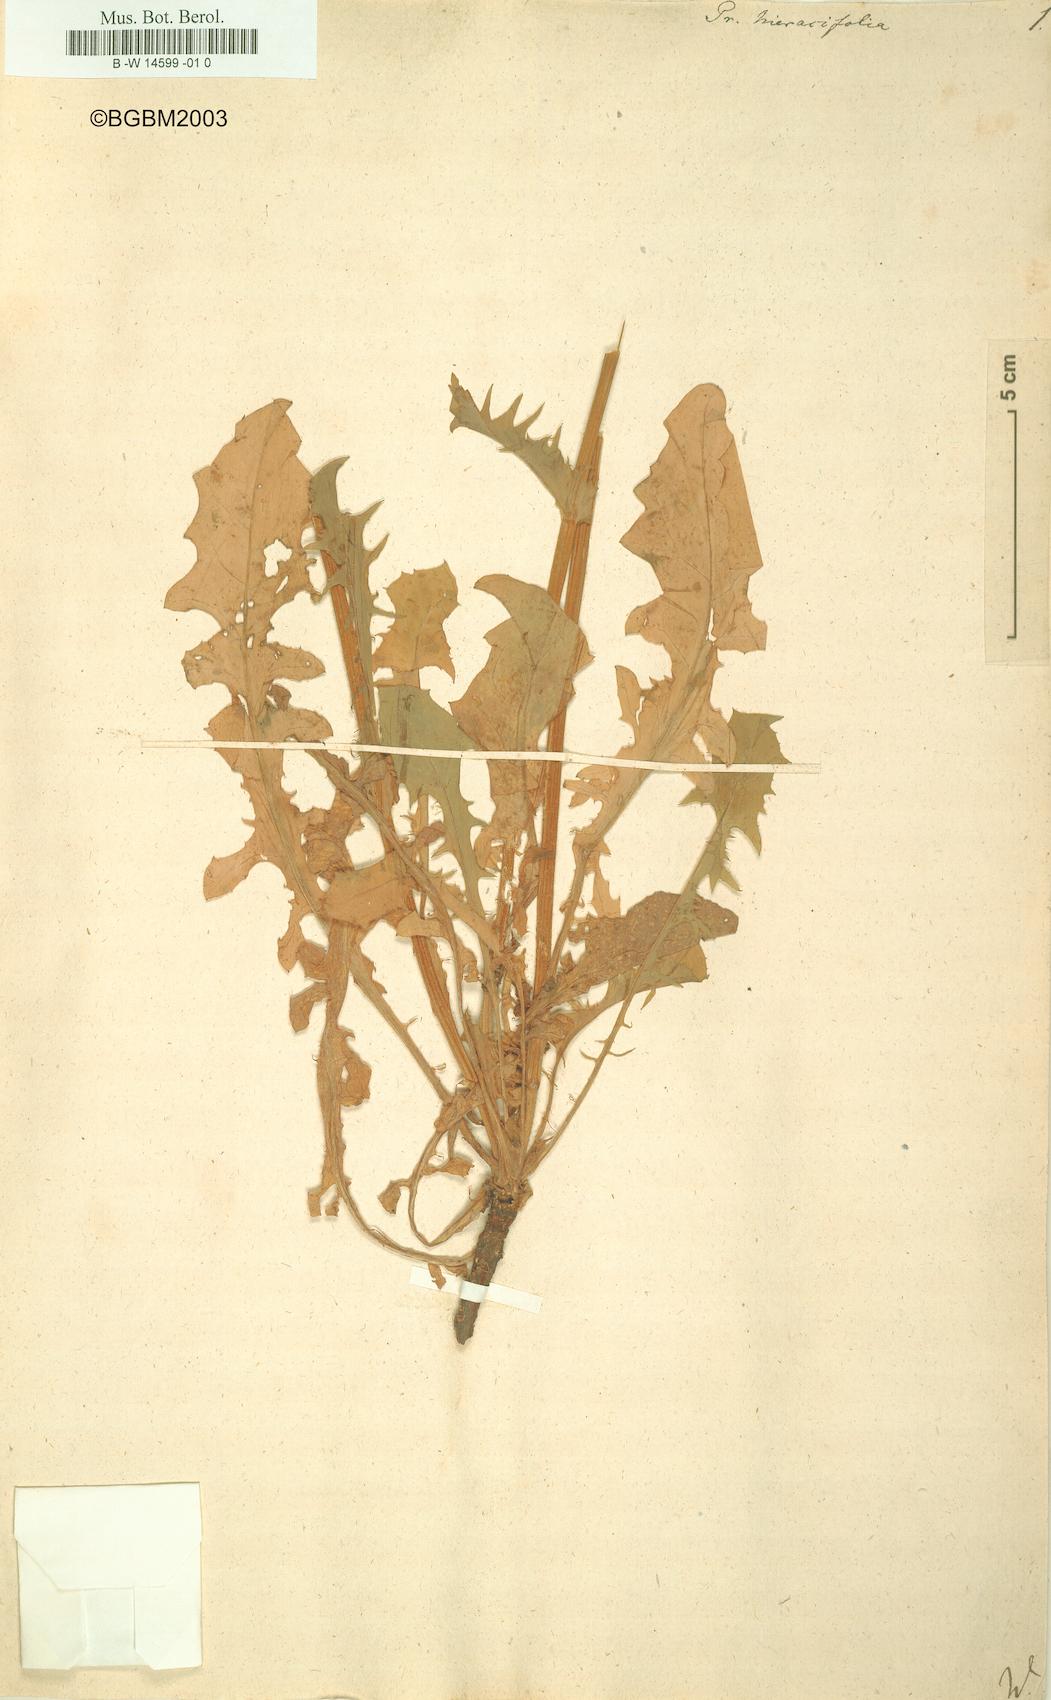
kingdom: Plantae
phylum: Tracheophyta
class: Magnoliopsida
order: Asterales
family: Asteraceae
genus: Crepis
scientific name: Crepis pulchra
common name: Hawk's-beard
